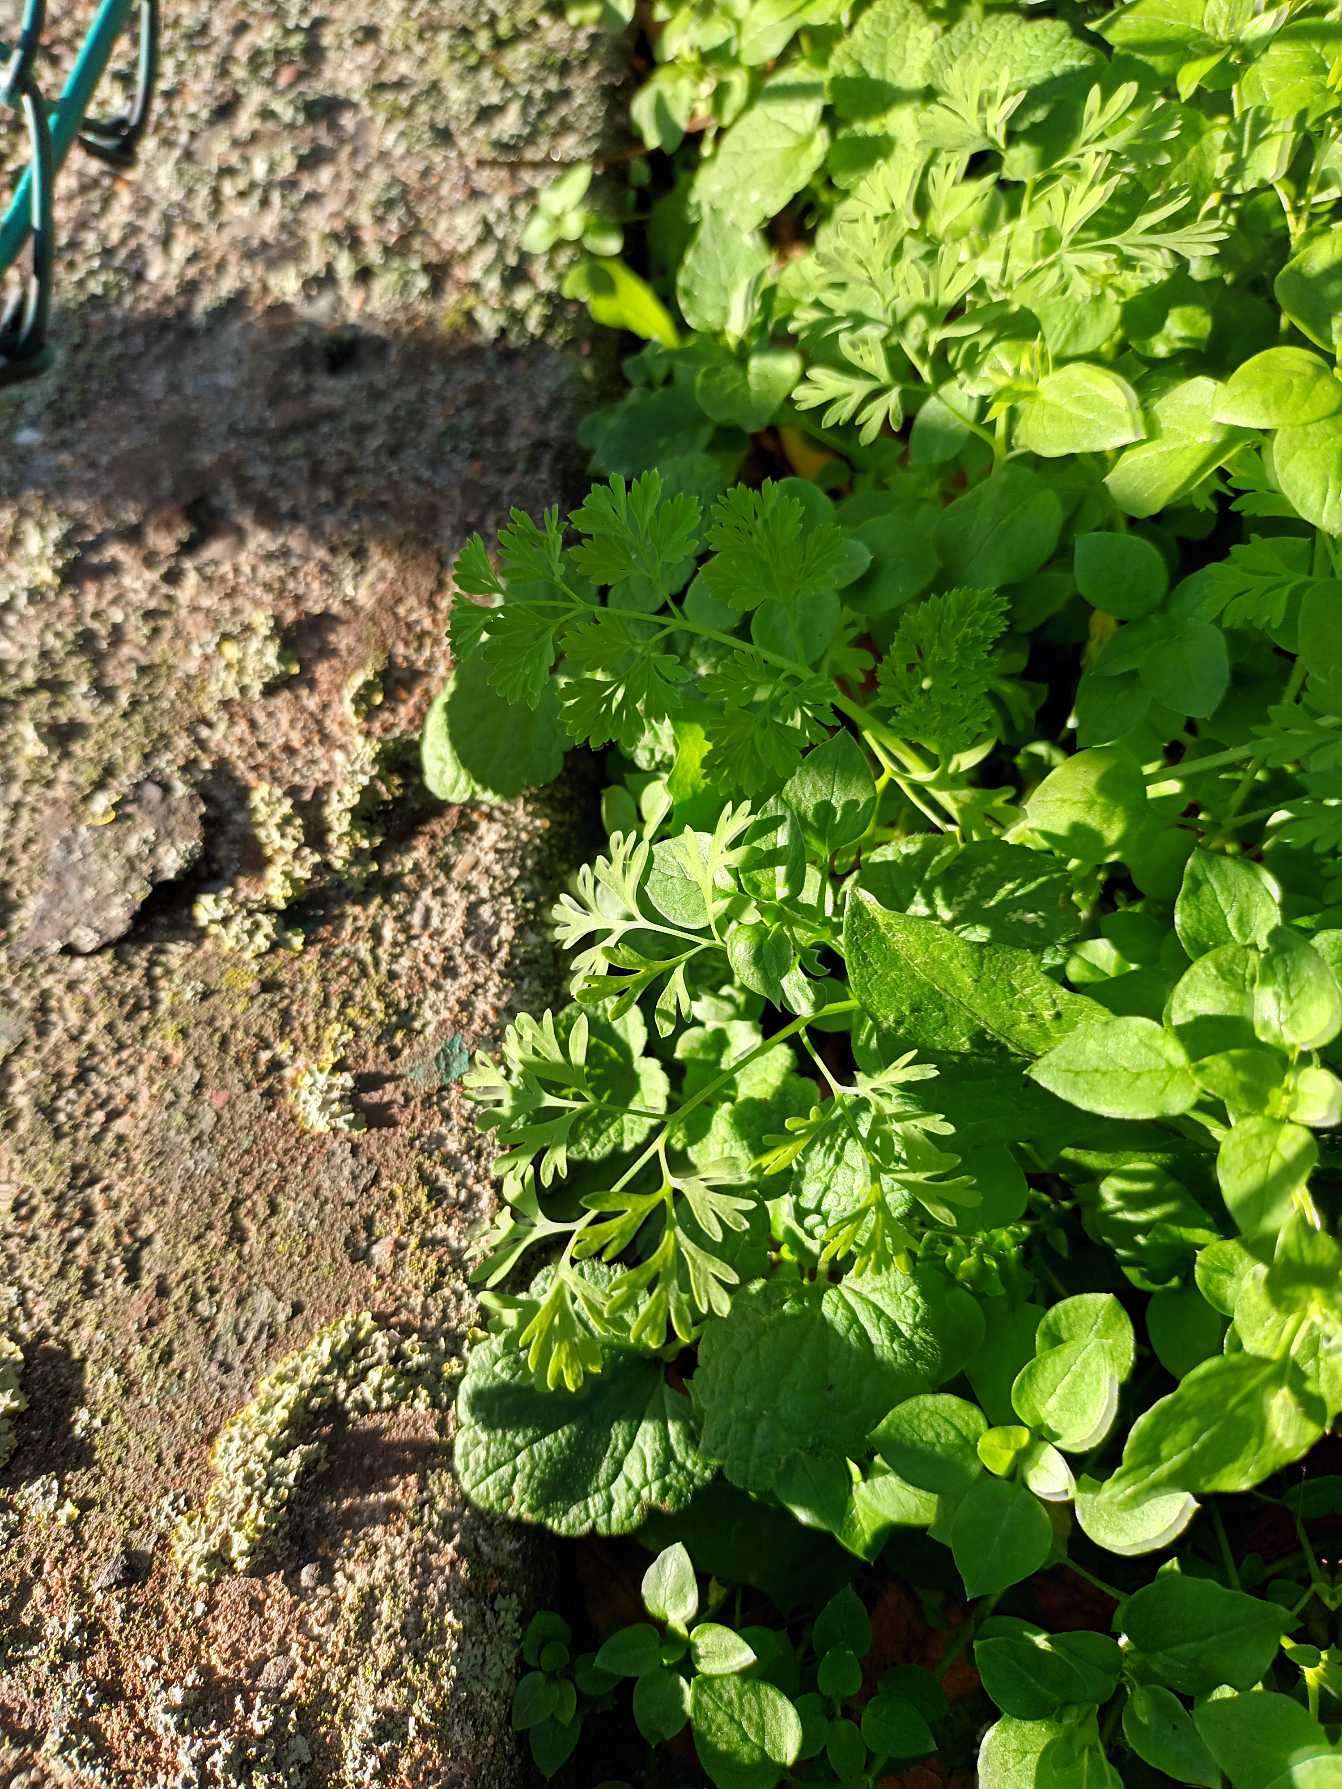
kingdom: Plantae
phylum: Tracheophyta
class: Magnoliopsida
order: Ranunculales
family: Papaveraceae
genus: Fumaria
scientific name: Fumaria officinalis
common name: Læge-jordrøg
